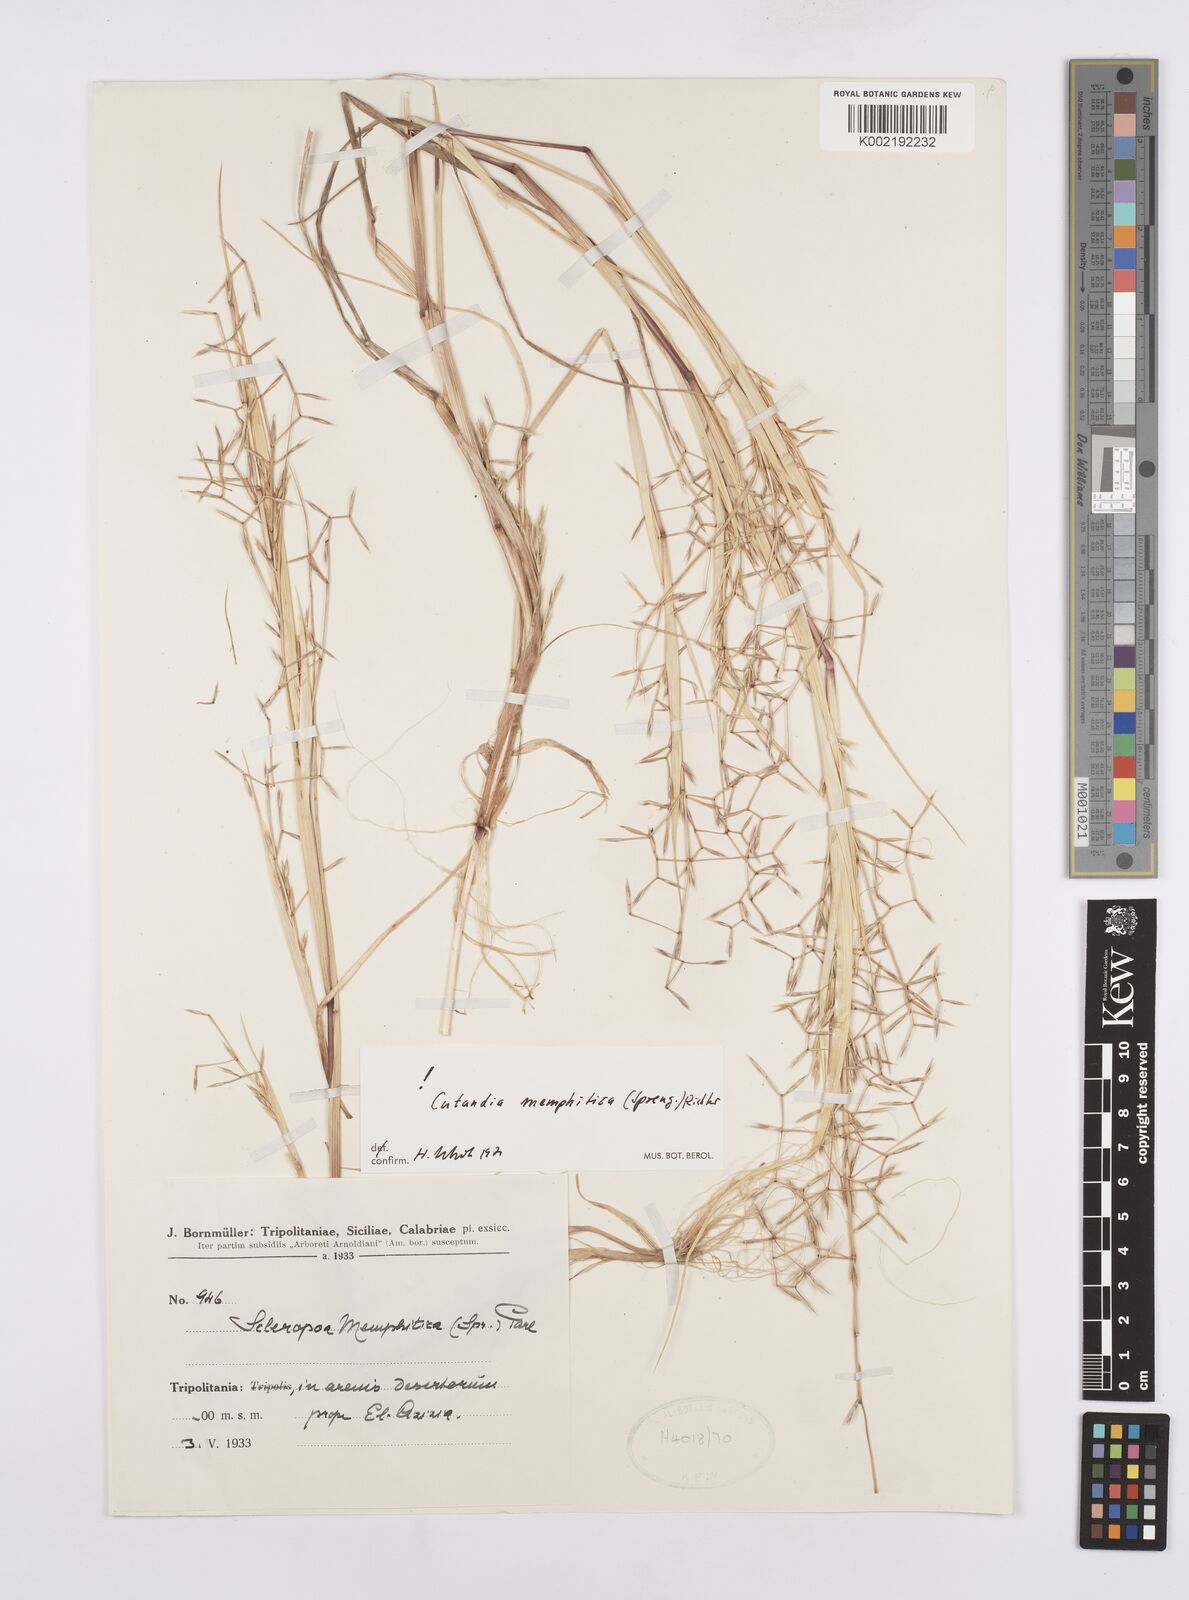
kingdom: Plantae
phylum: Tracheophyta
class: Liliopsida
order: Poales
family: Poaceae
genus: Cutandia
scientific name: Cutandia memphitica
